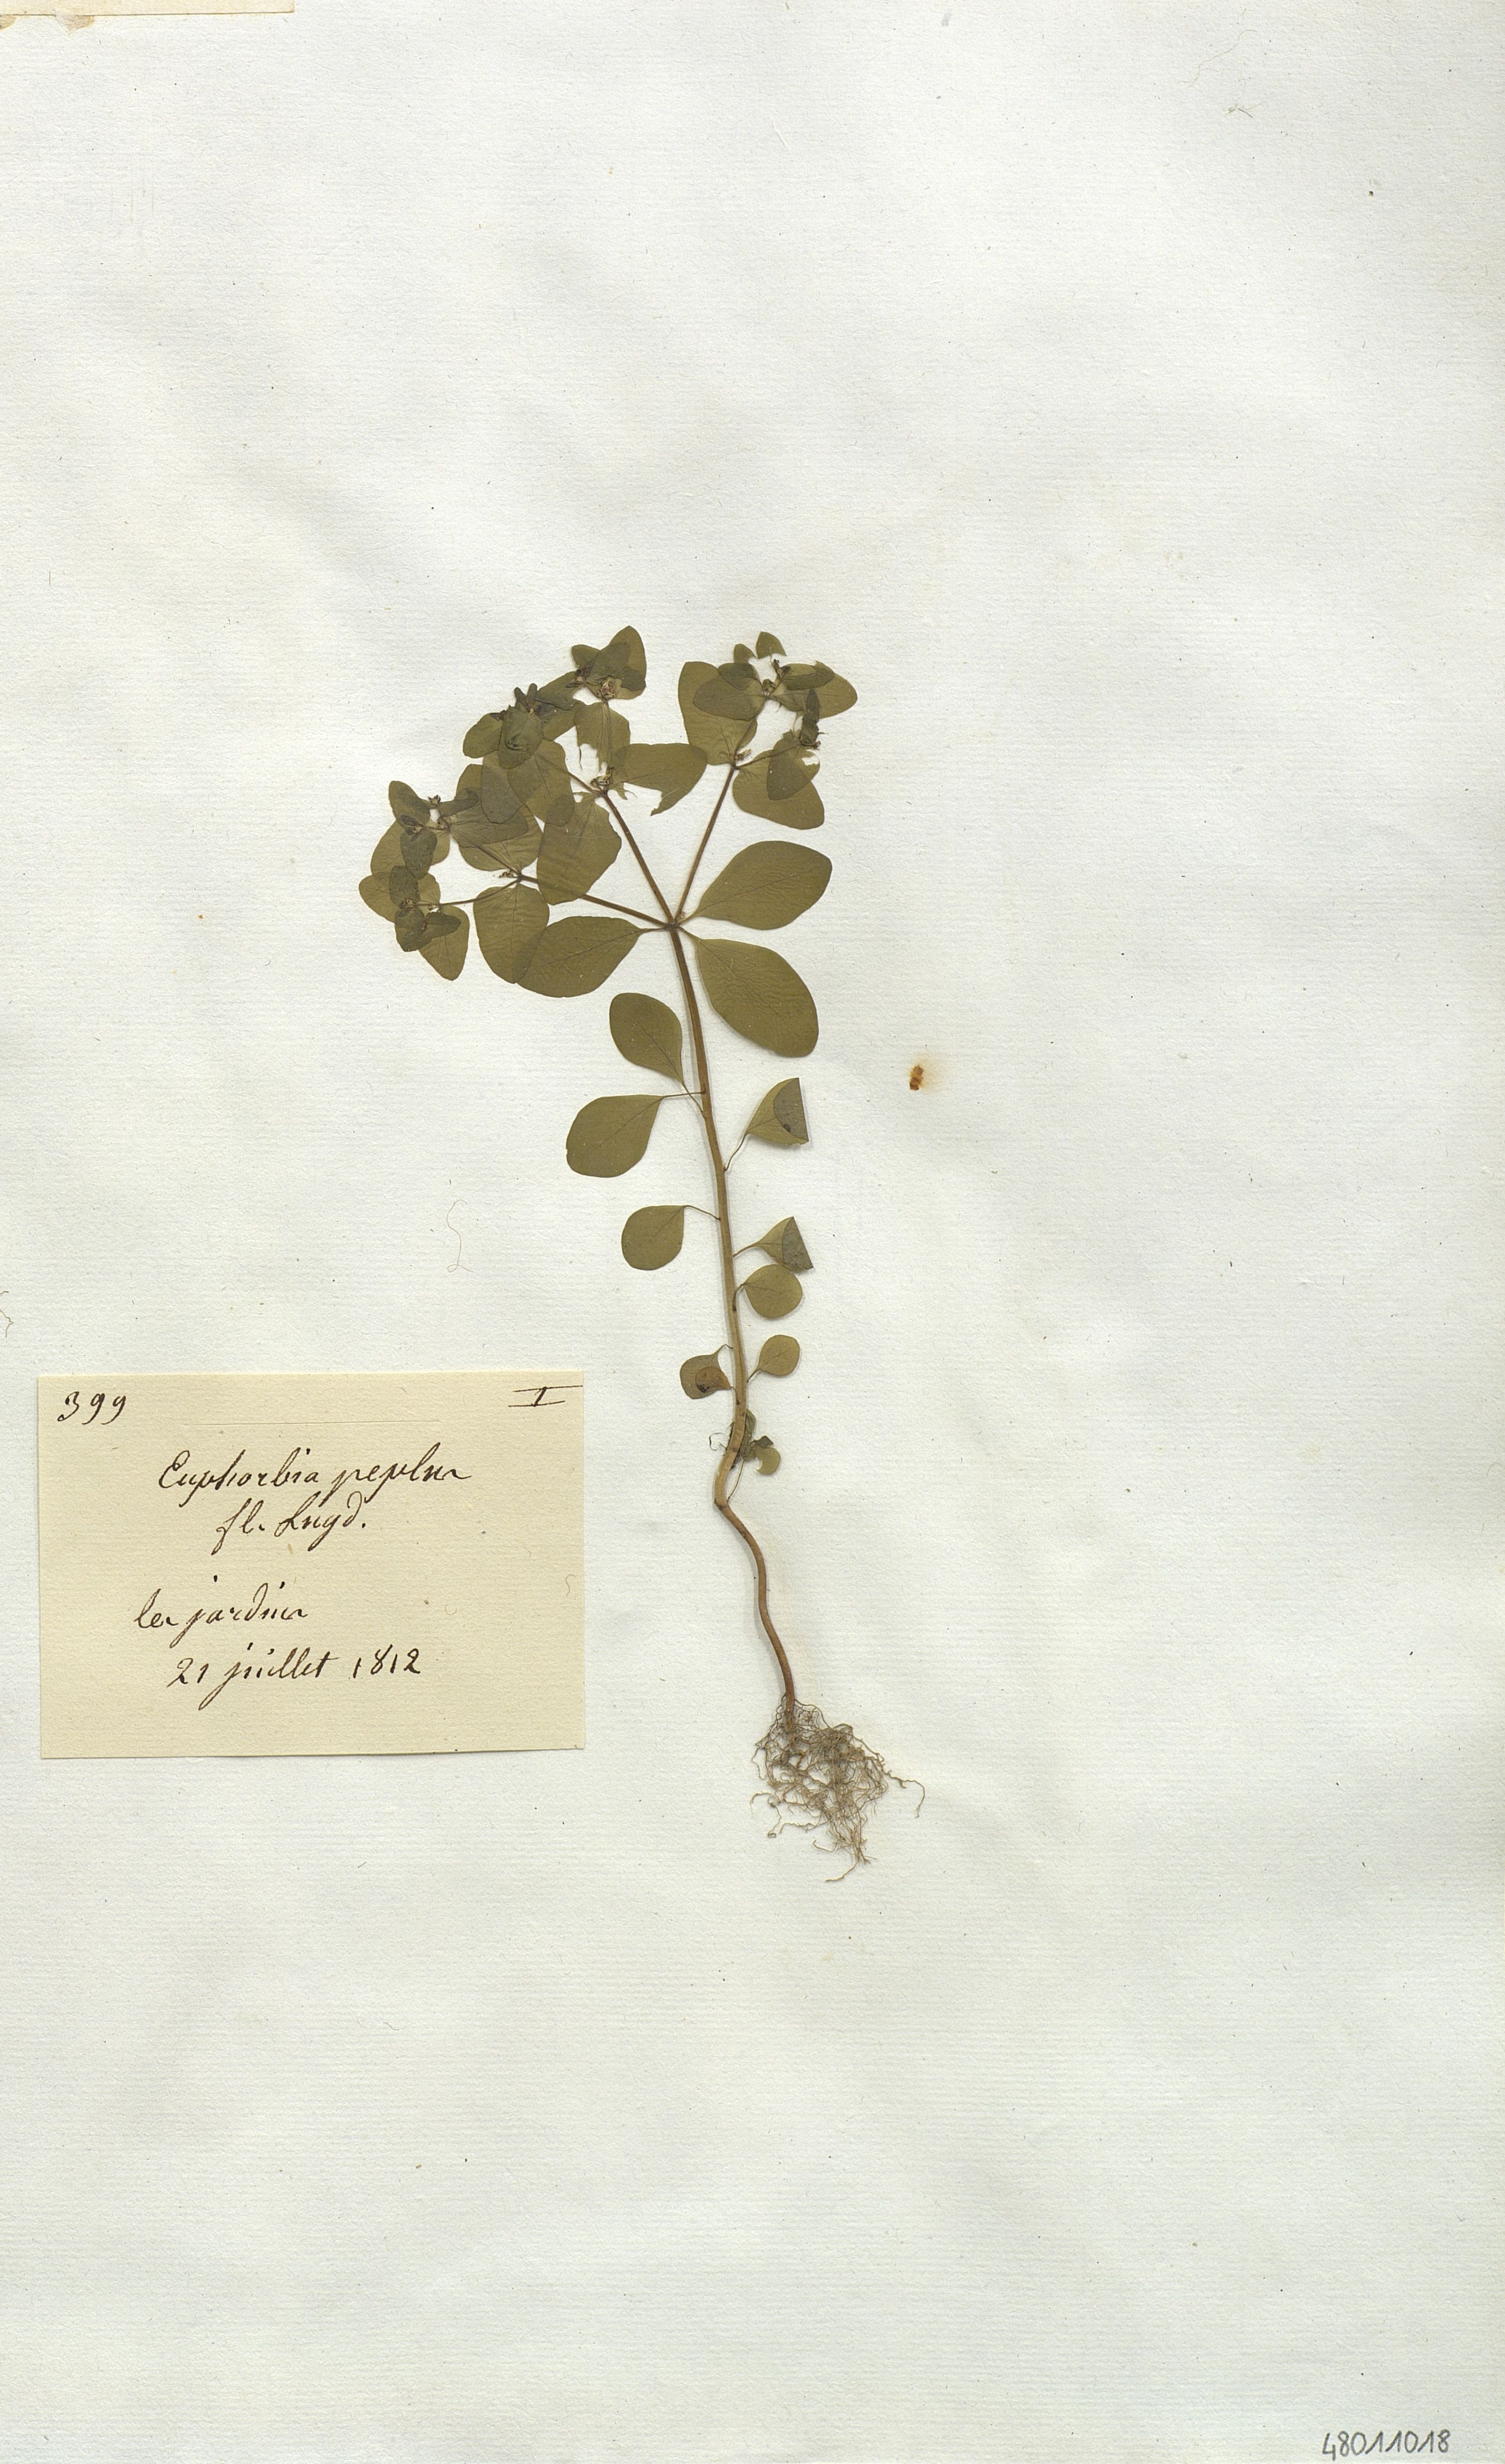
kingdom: Plantae
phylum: Tracheophyta
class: Magnoliopsida
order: Malpighiales
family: Euphorbiaceae
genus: Euphorbia
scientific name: Euphorbia peplus
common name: Petty spurge
